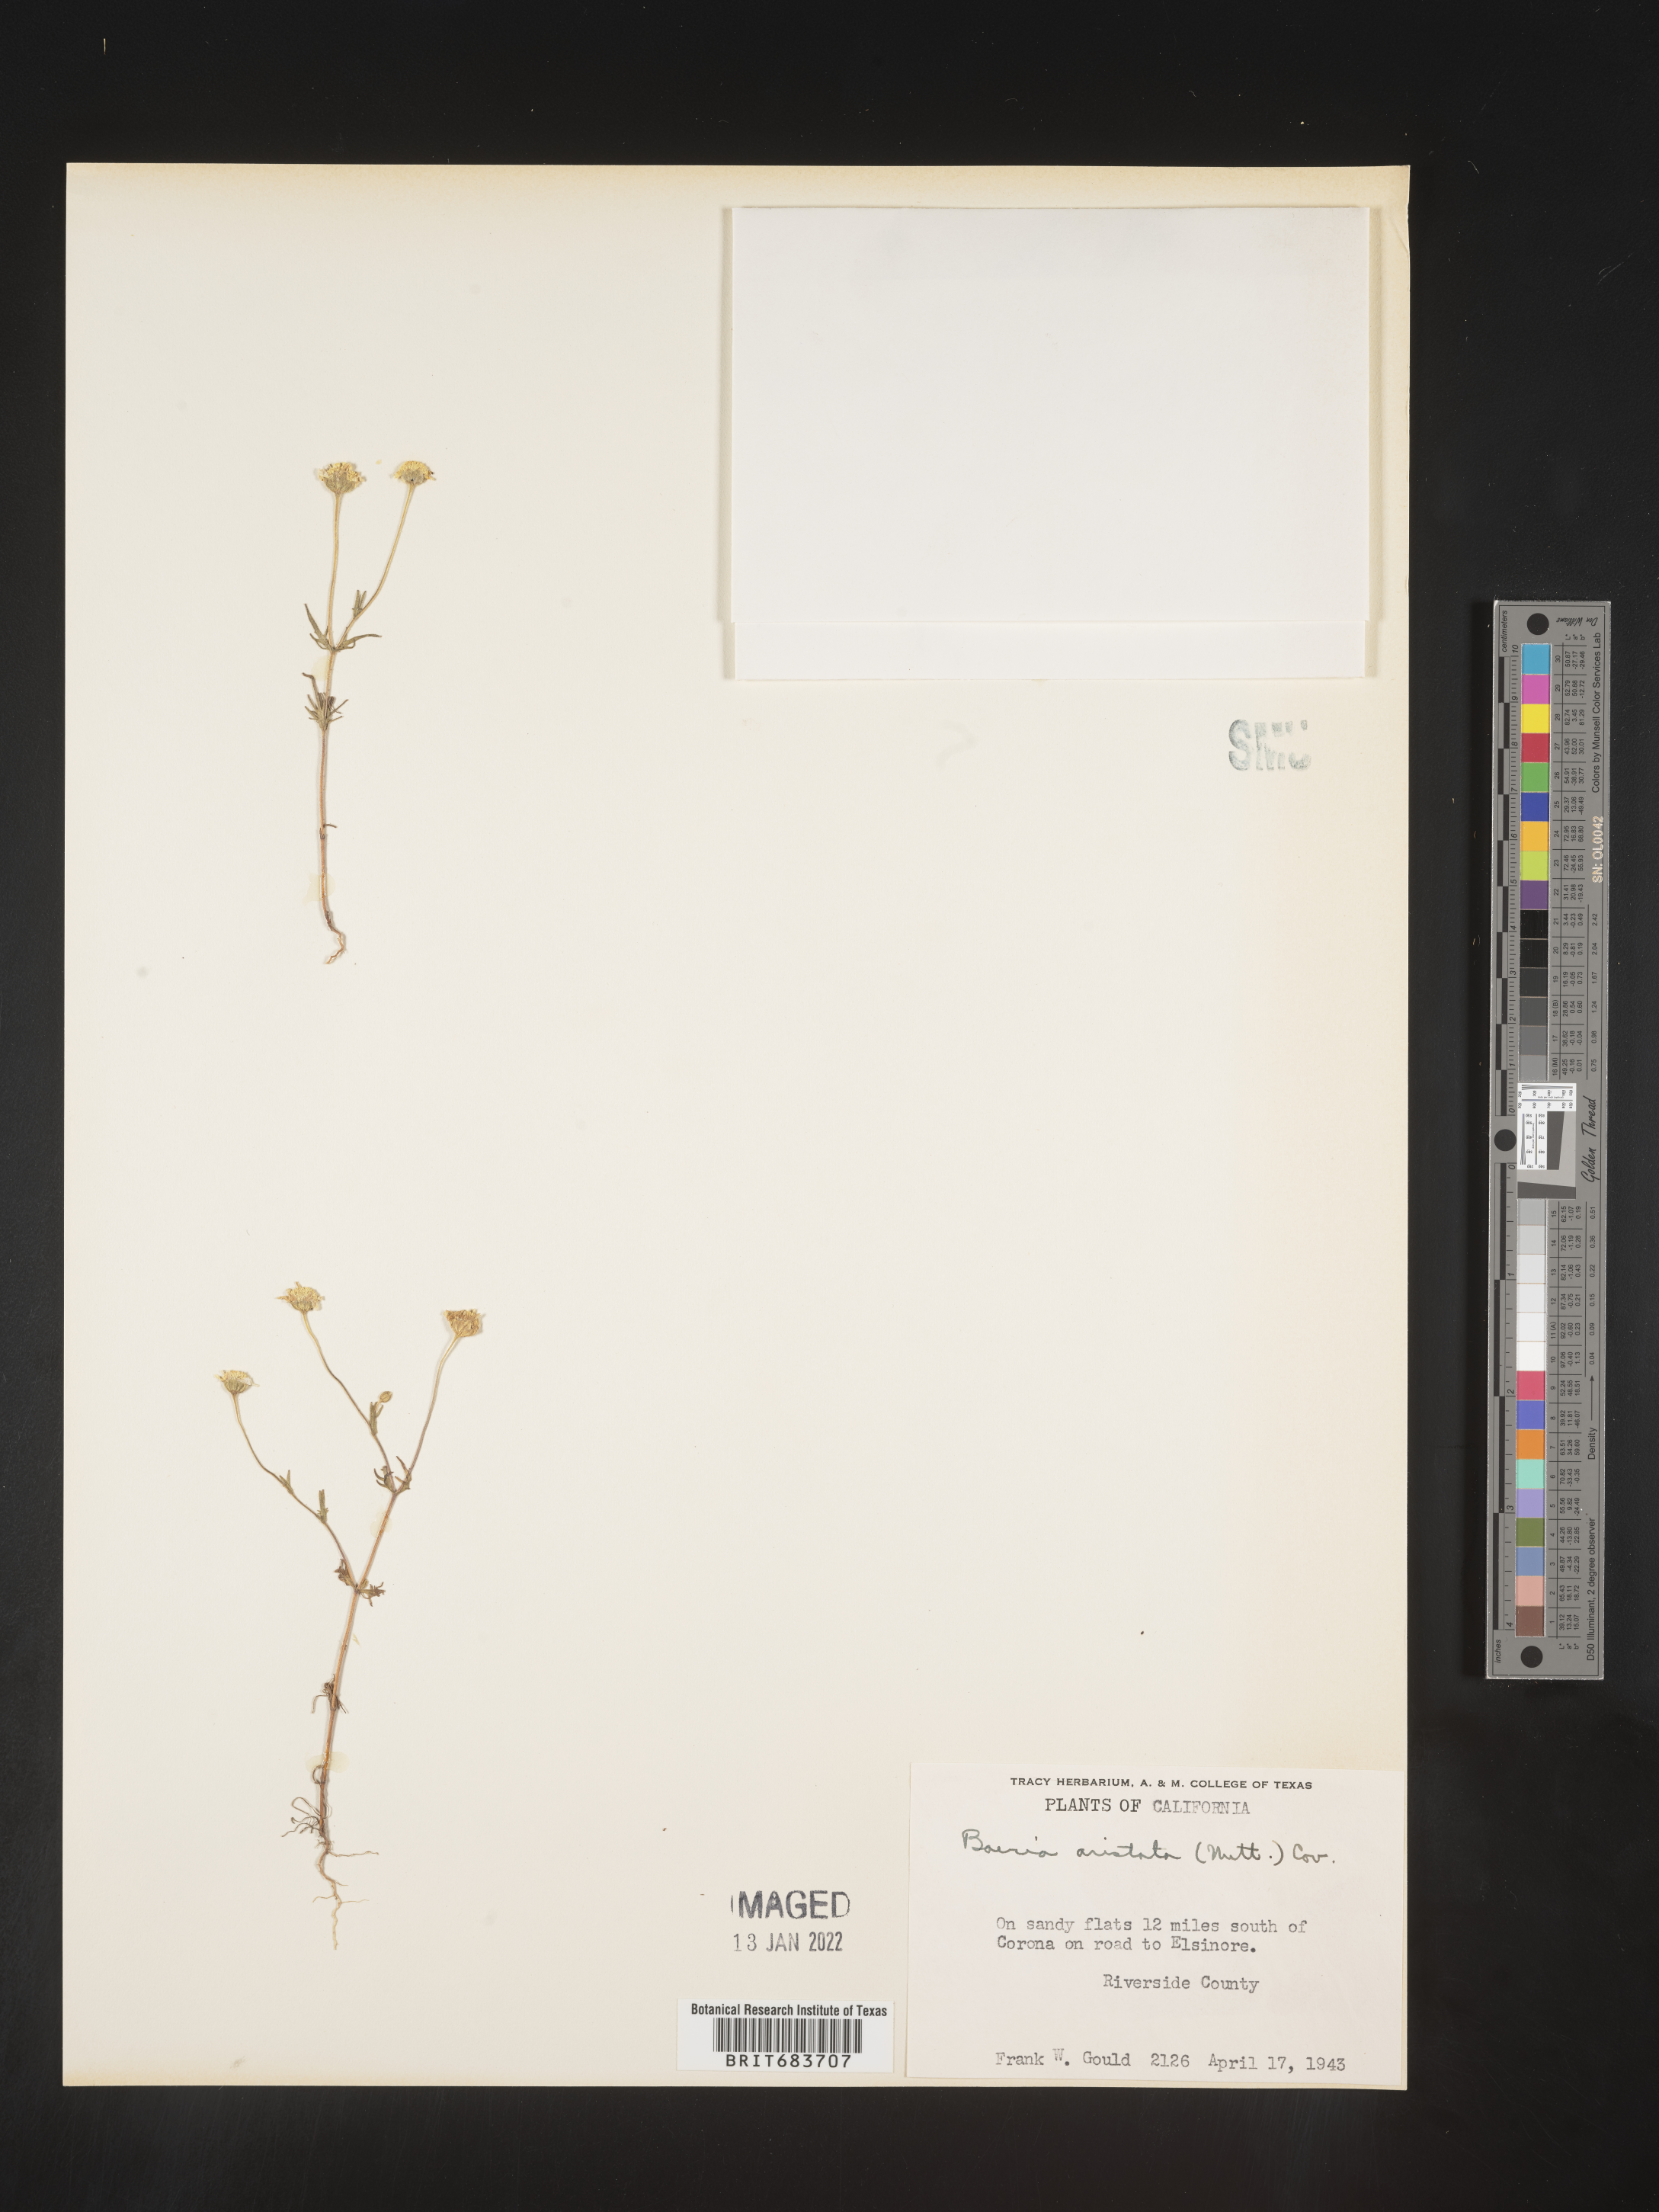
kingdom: Plantae
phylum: Tracheophyta
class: Magnoliopsida
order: Asterales
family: Asteraceae
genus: Lasthenia
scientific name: Lasthenia
